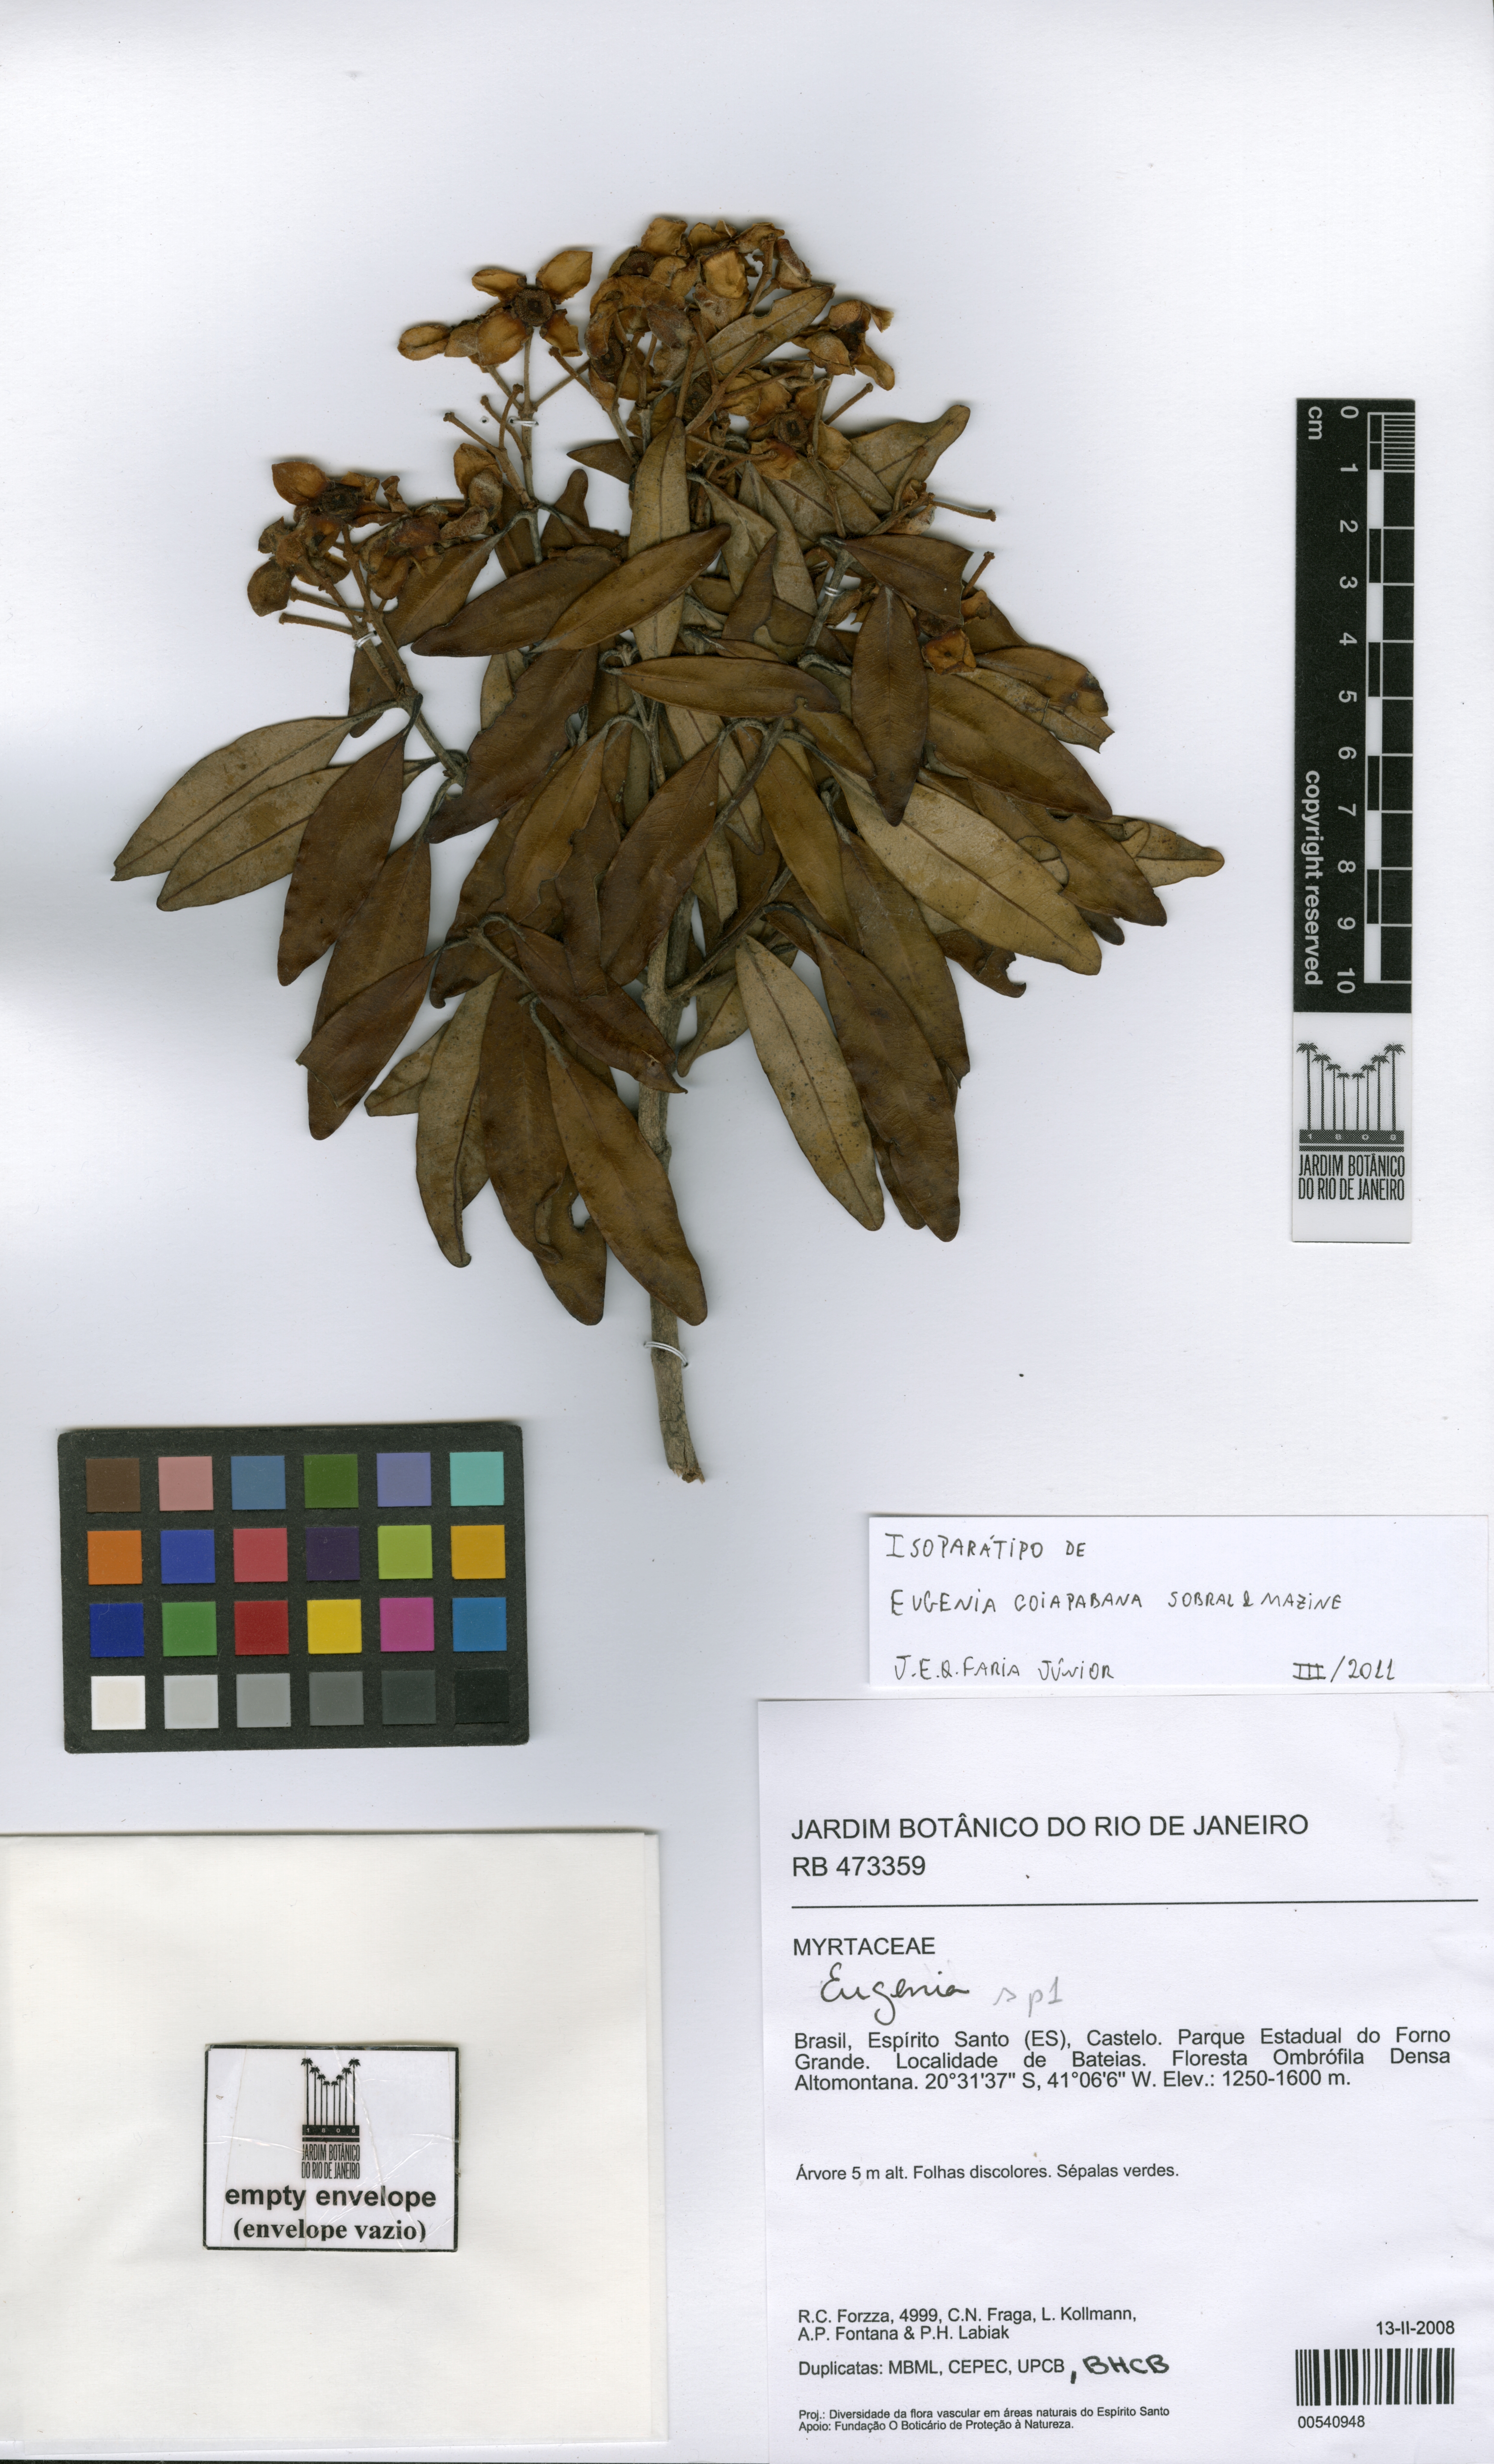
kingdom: Plantae
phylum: Tracheophyta
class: Magnoliopsida
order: Myrtales
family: Myrtaceae
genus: Eugenia
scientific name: Eugenia goiapabana
